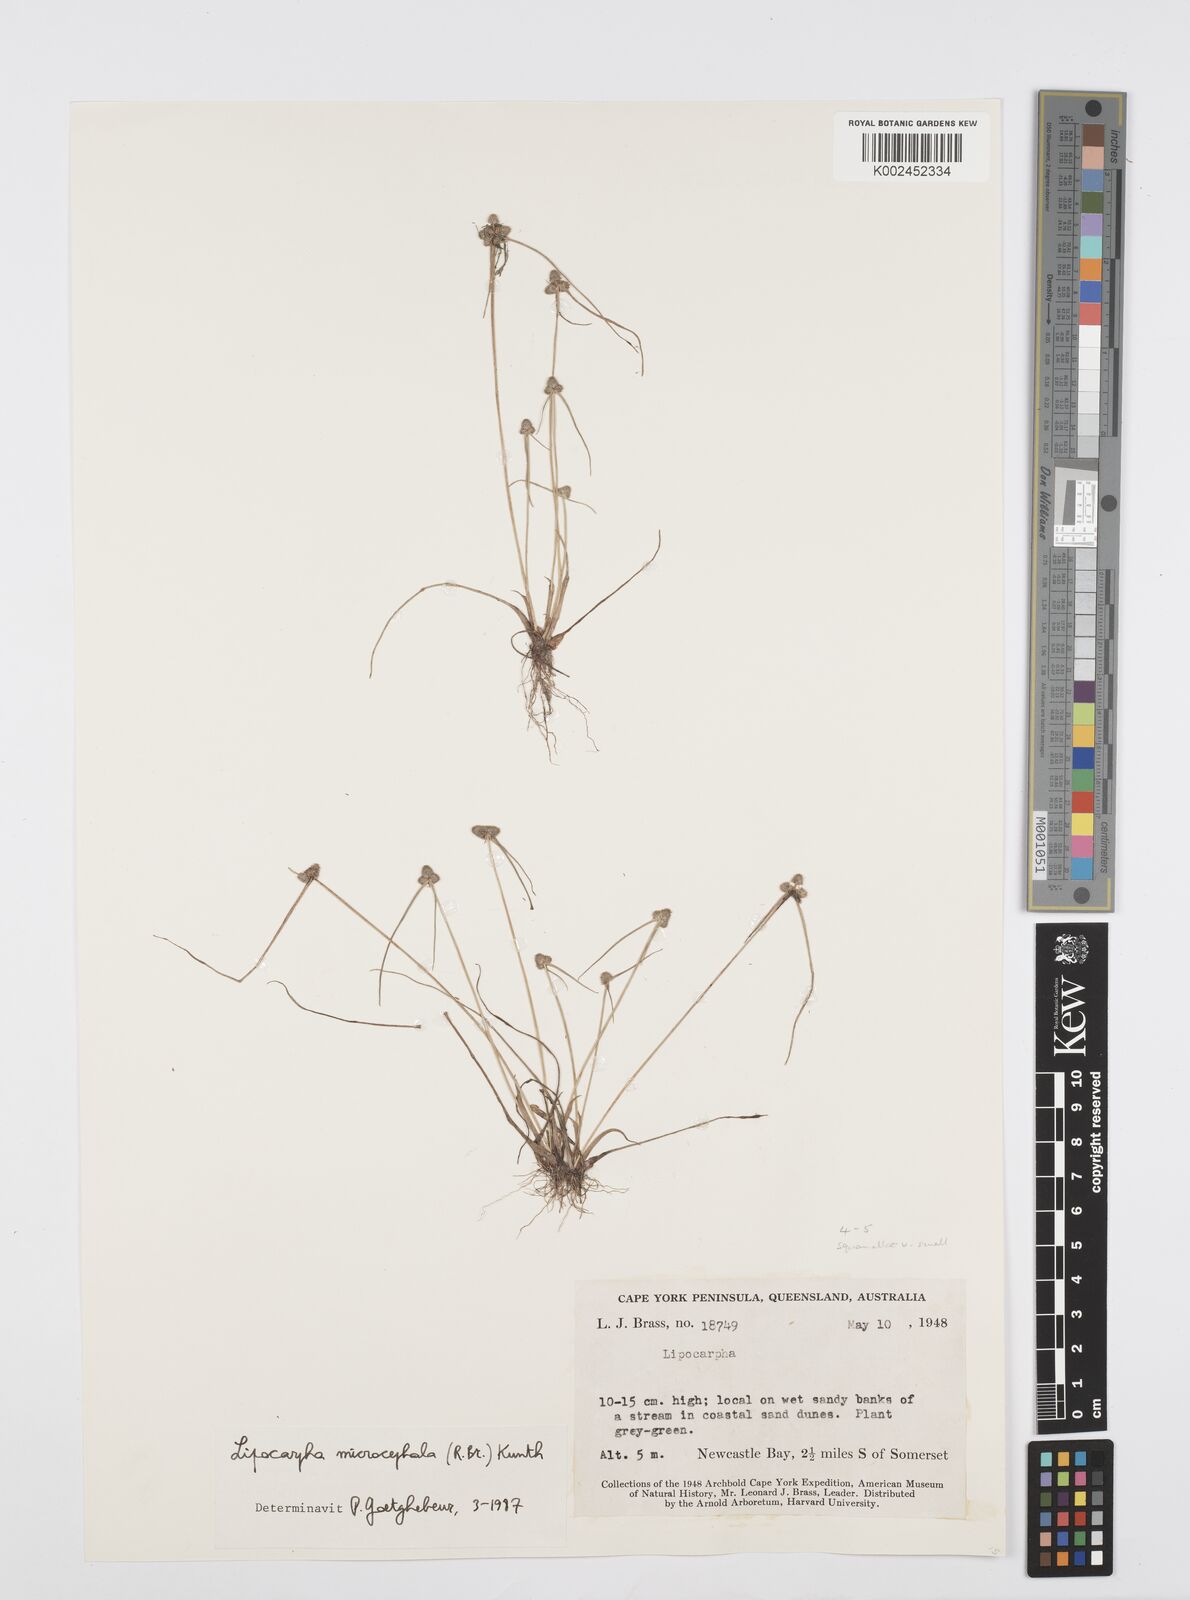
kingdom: Plantae
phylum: Tracheophyta
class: Liliopsida
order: Poales
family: Cyperaceae
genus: Cyperus
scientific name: Cyperus microcephalus
